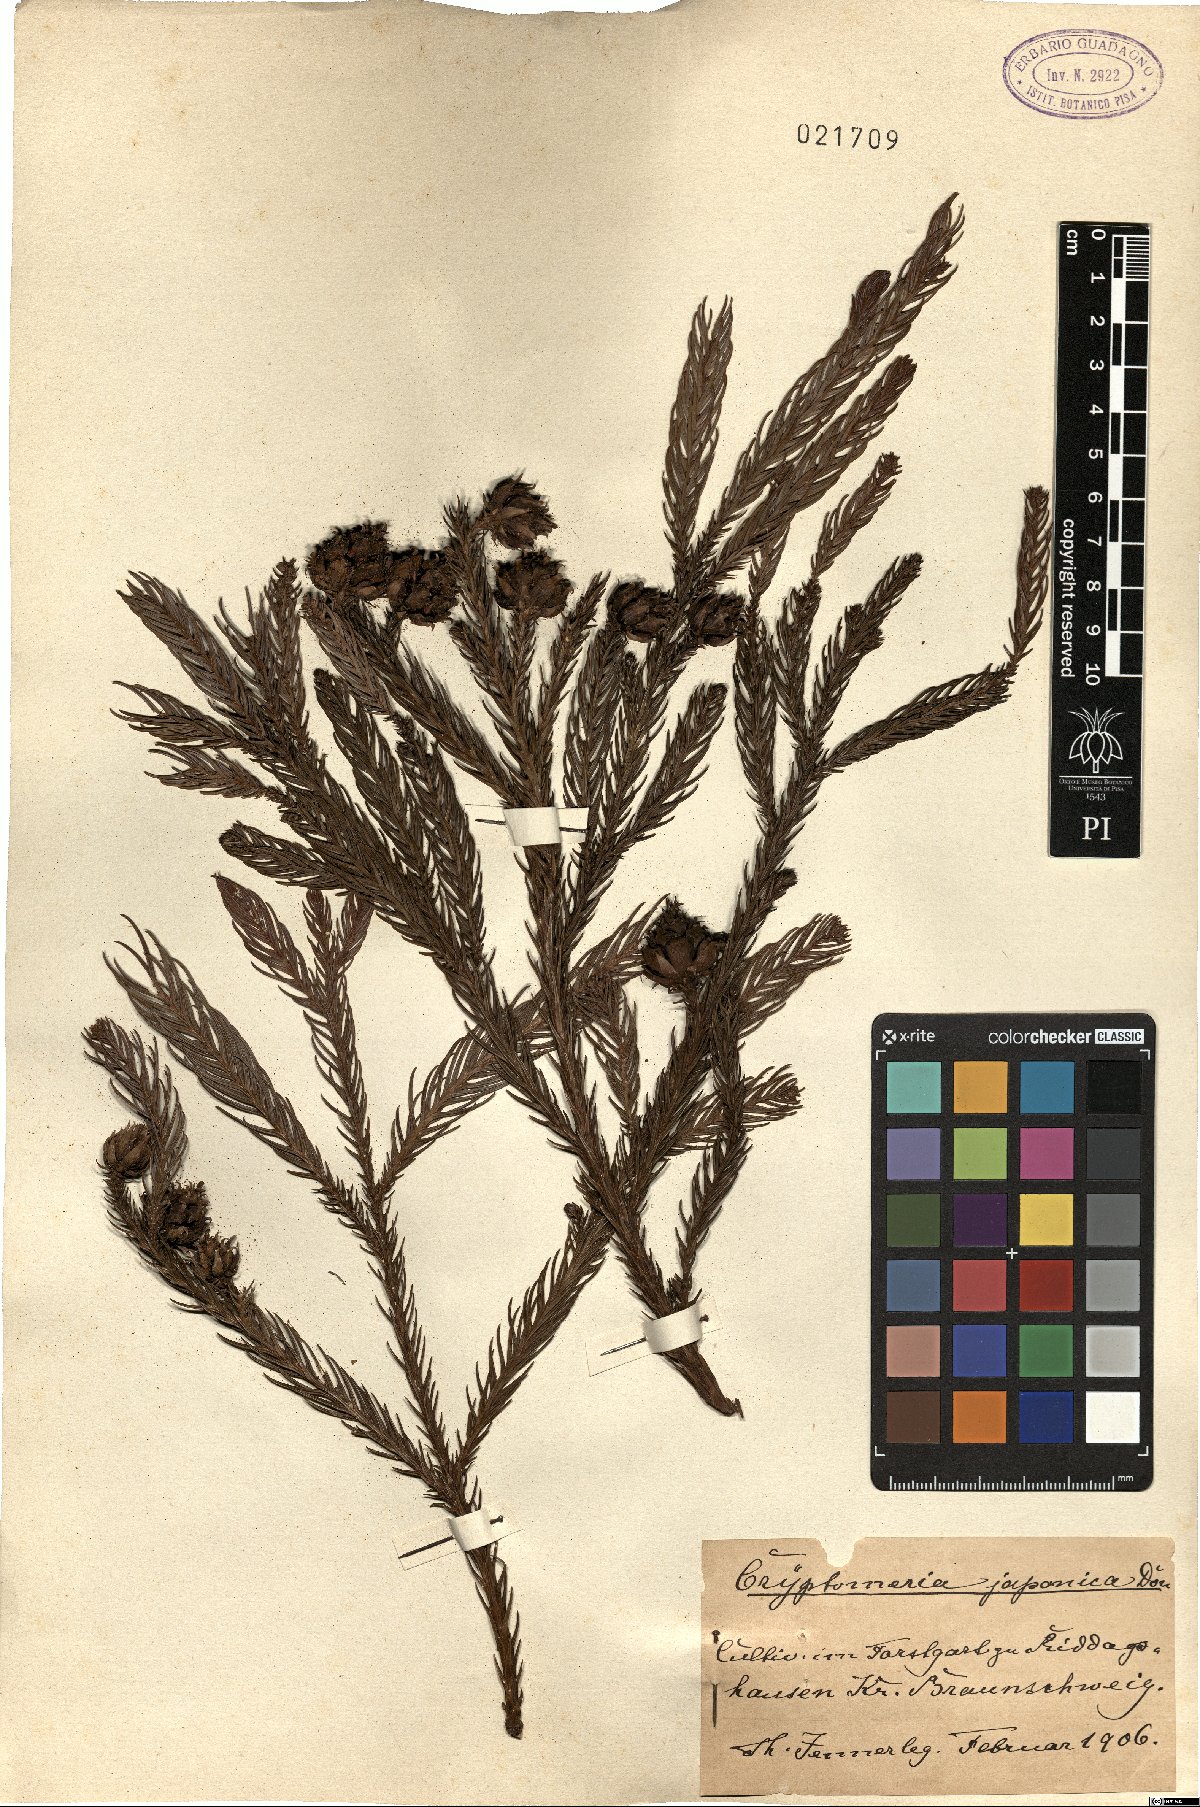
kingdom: Plantae
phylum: Tracheophyta
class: Pinopsida
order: Pinales
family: Cupressaceae
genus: Cryptomeria
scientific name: Cryptomeria japonica
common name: Japanese cedar
